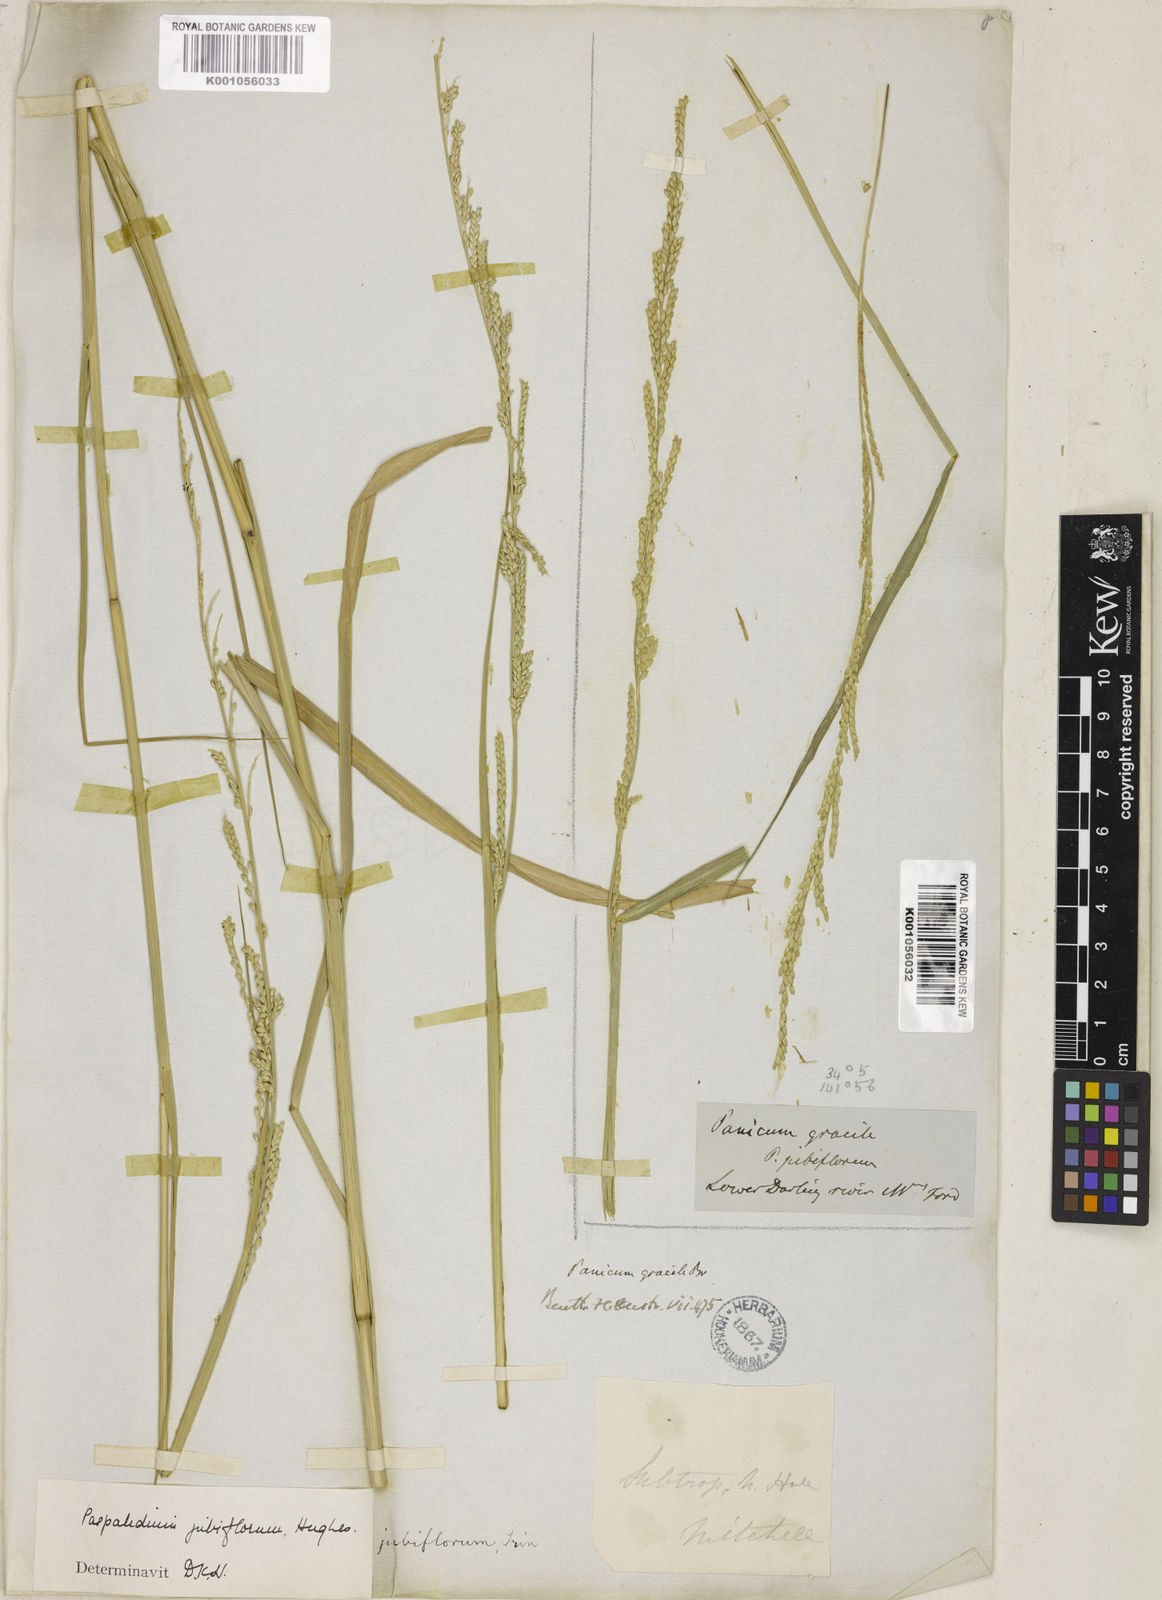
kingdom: Plantae
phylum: Tracheophyta
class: Liliopsida
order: Poales
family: Poaceae
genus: Setaria
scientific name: Setaria jubiflora
